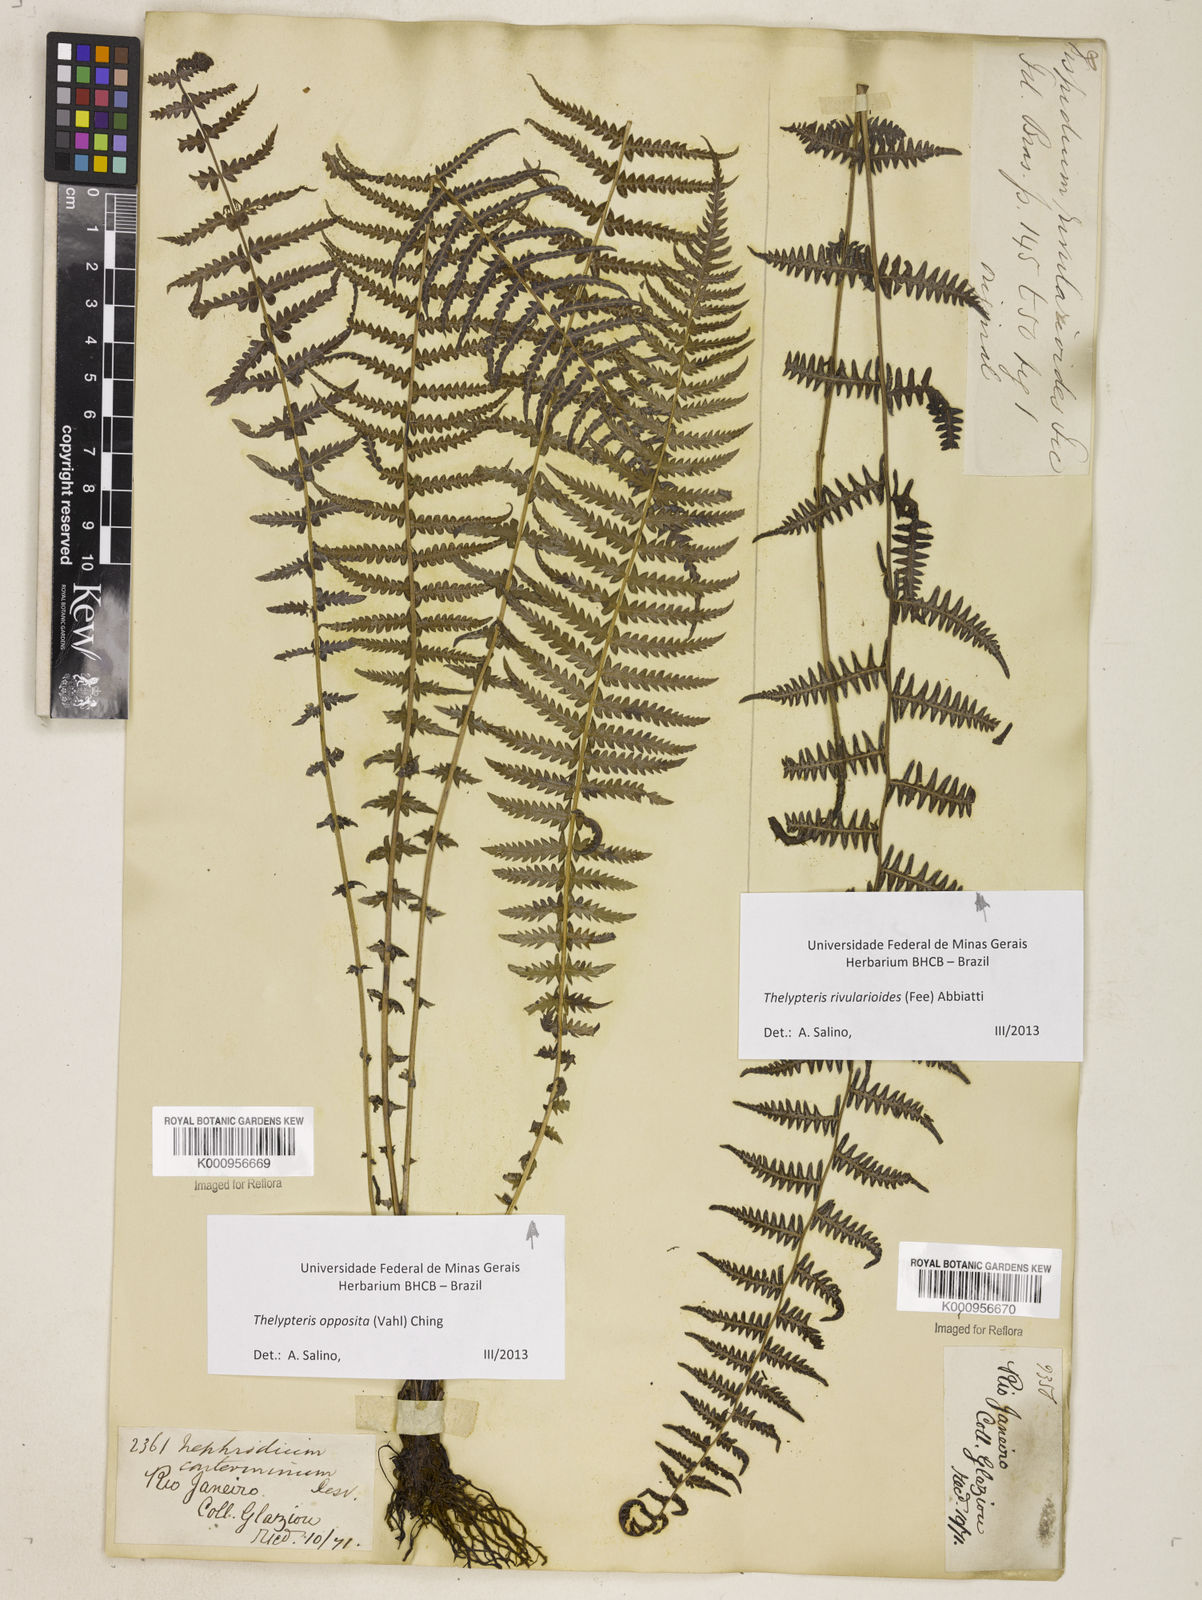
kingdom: Plantae
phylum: Tracheophyta
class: Polypodiopsida
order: Polypodiales
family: Thelypteridaceae
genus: Amauropelta
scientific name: Amauropelta opposita
